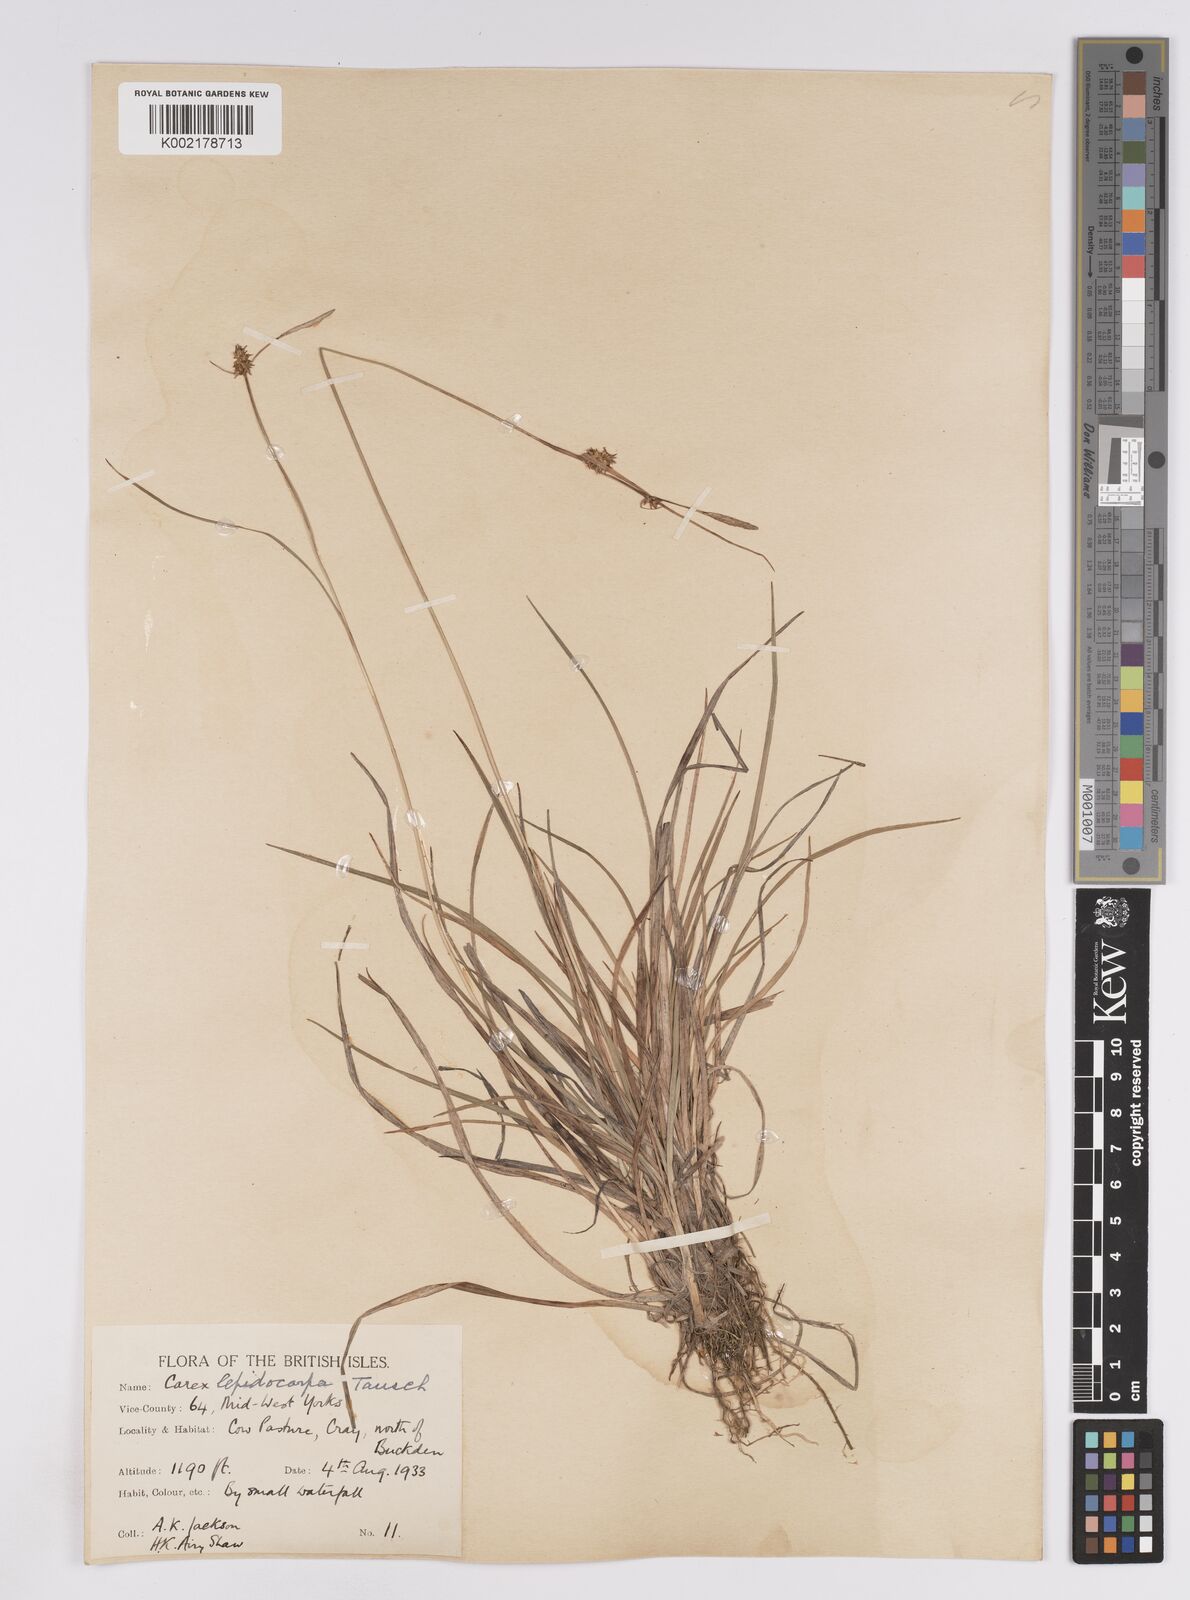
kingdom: Plantae
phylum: Tracheophyta
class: Liliopsida
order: Poales
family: Cyperaceae
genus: Carex
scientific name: Carex lepidocarpa
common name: Long-stalked yellow-sedge
